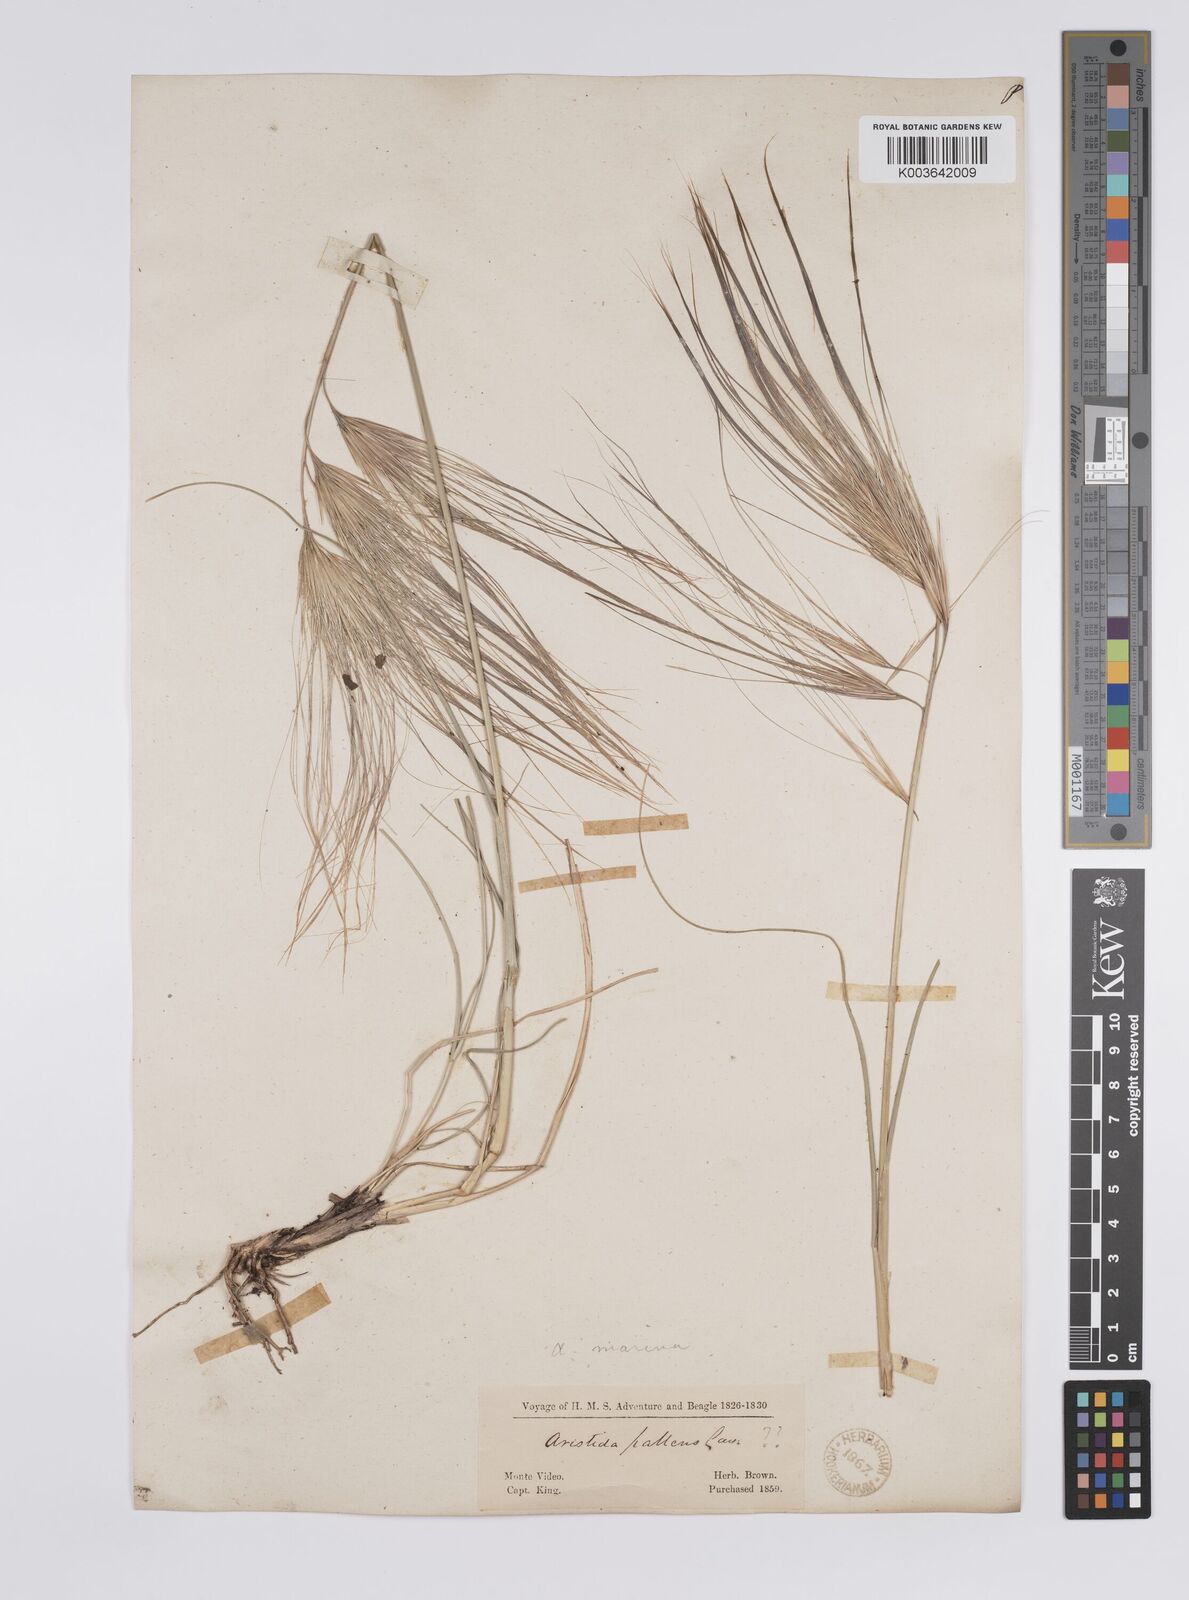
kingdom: Plantae
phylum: Tracheophyta
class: Liliopsida
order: Poales
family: Poaceae
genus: Aristida
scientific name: Aristida murina
